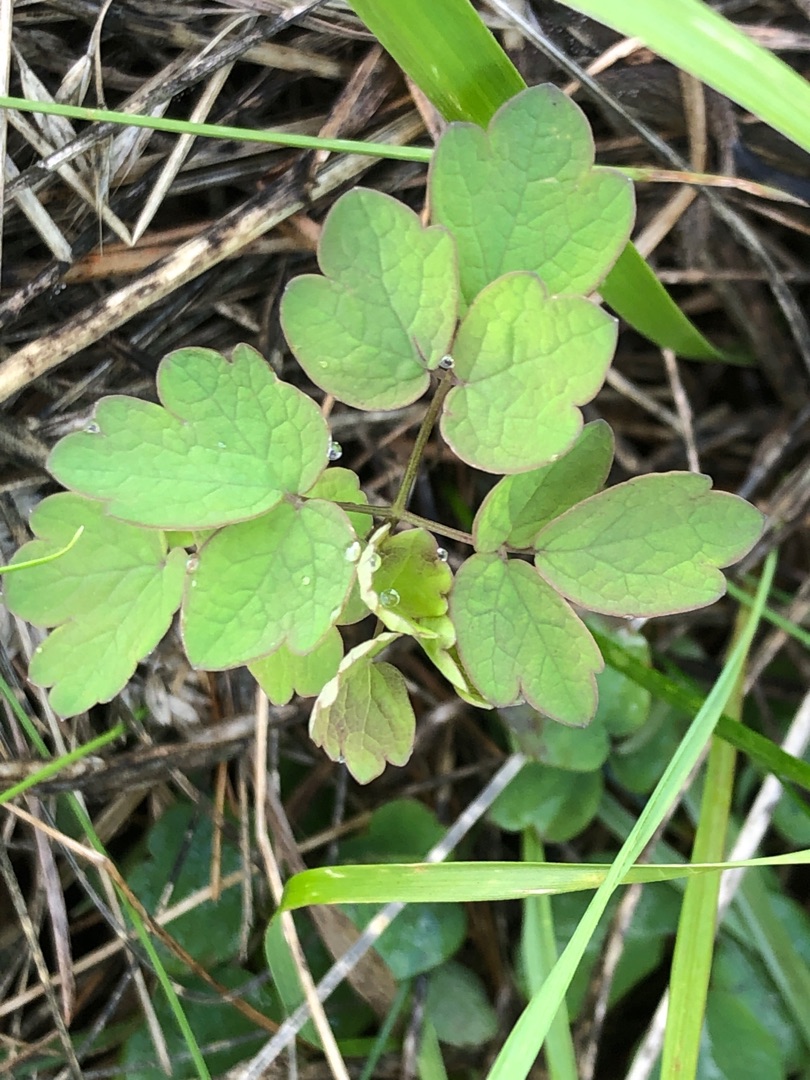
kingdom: Plantae
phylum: Tracheophyta
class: Magnoliopsida
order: Ranunculales
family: Ranunculaceae
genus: Thalictrum
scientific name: Thalictrum flavum
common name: Gul frøstjerne
